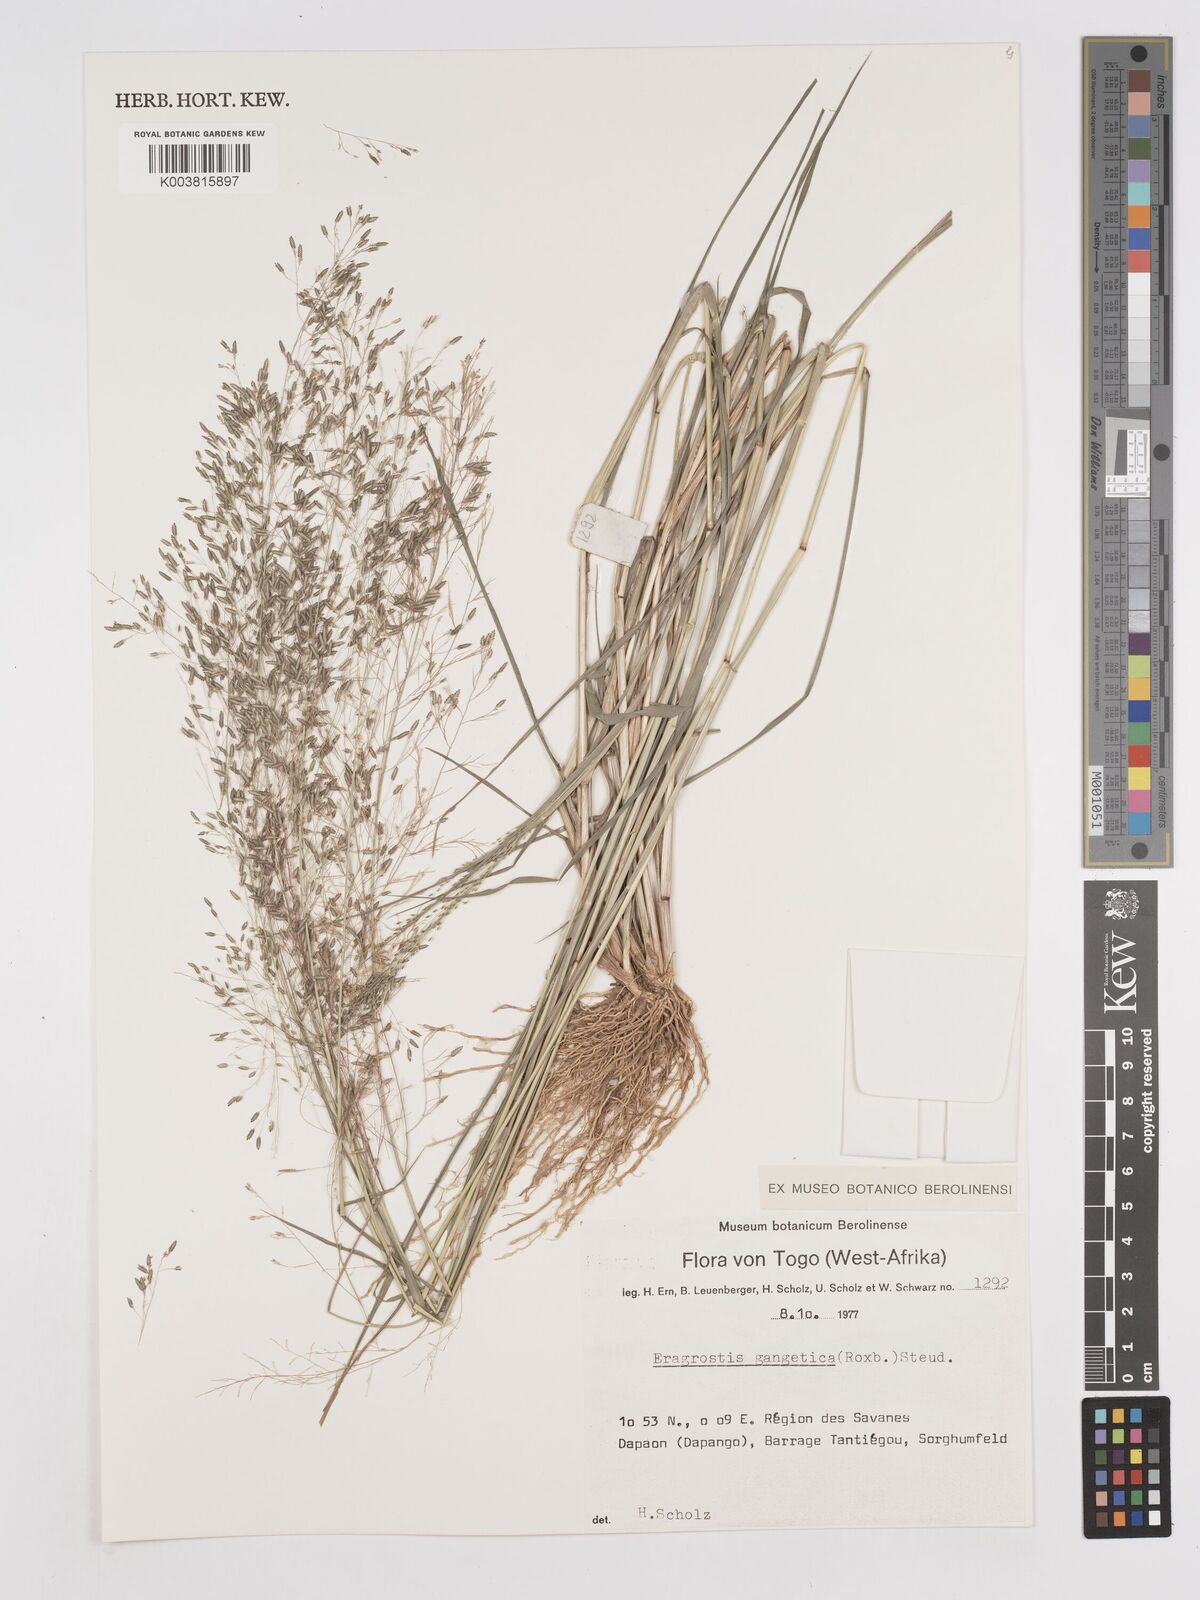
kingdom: Plantae
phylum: Tracheophyta
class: Liliopsida
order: Poales
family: Poaceae
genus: Eragrostis
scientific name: Eragrostis gangetica
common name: Slimflower lovegrass
